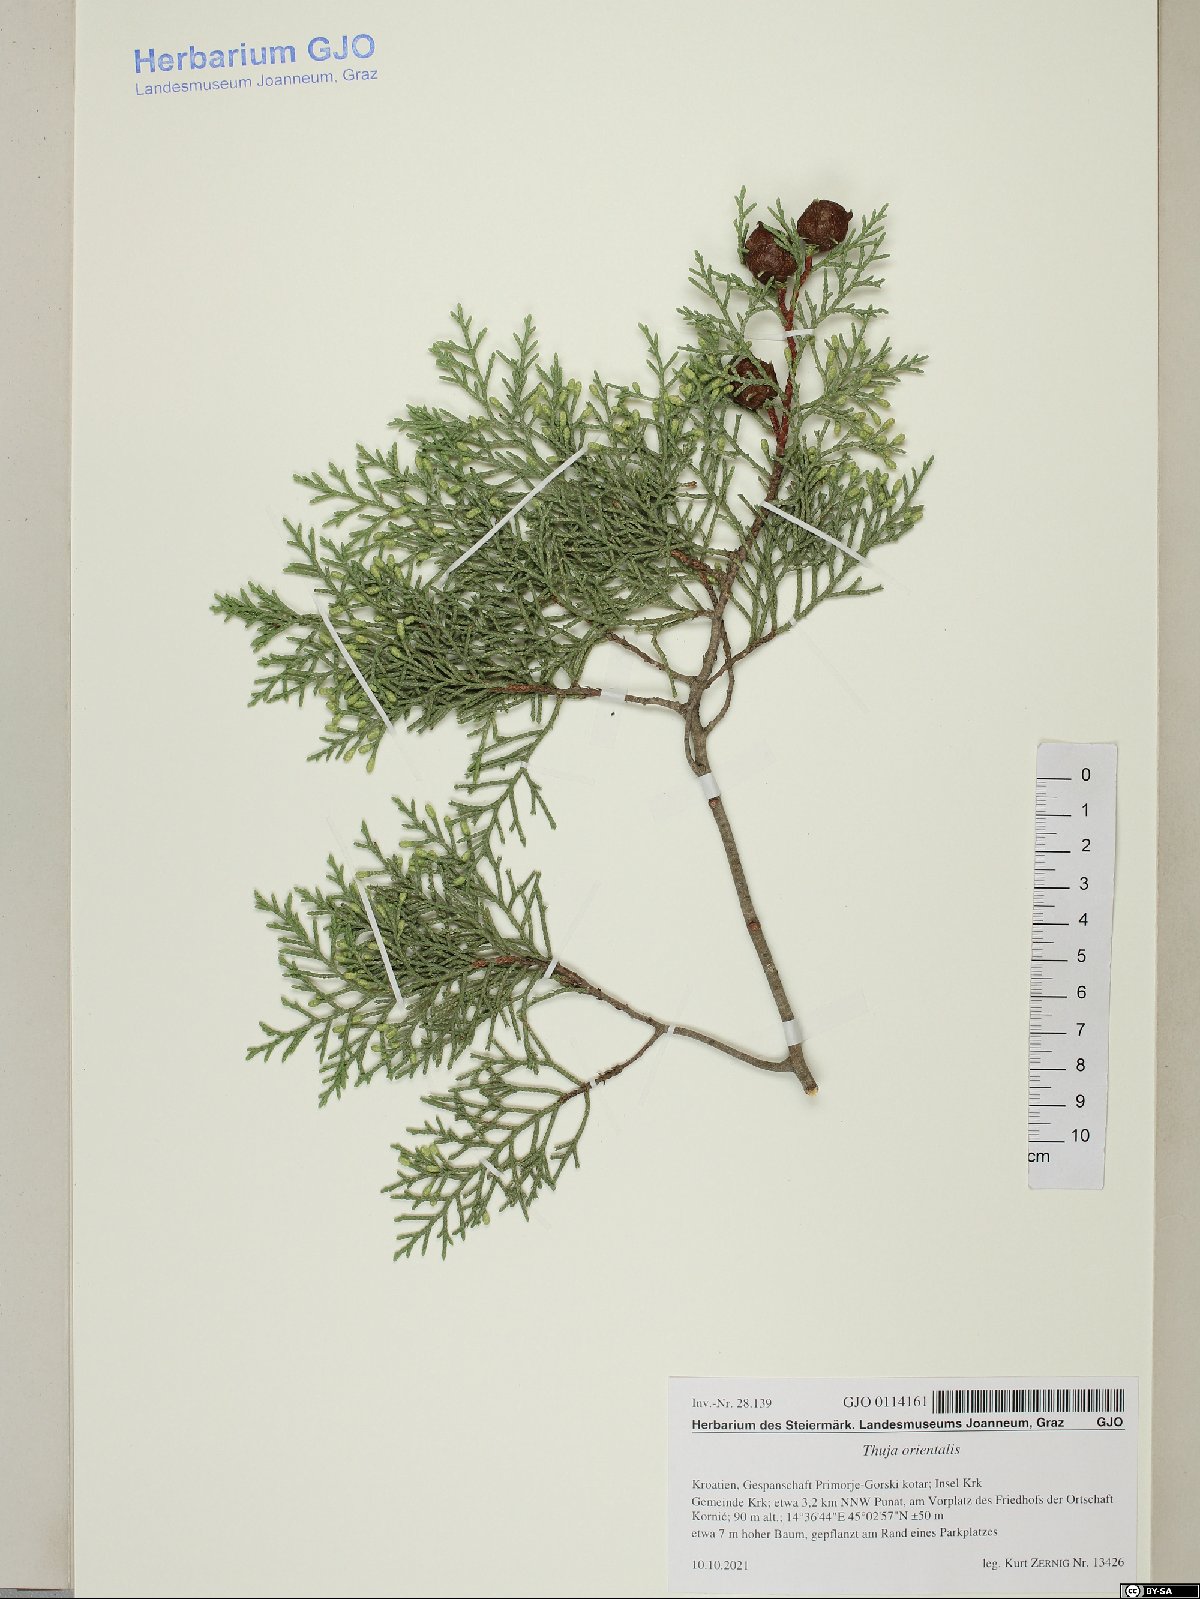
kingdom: Plantae
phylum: Tracheophyta
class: Pinopsida
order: Pinales
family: Cupressaceae
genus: Platycladus
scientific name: Platycladus orientalis
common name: Chinese thuja
